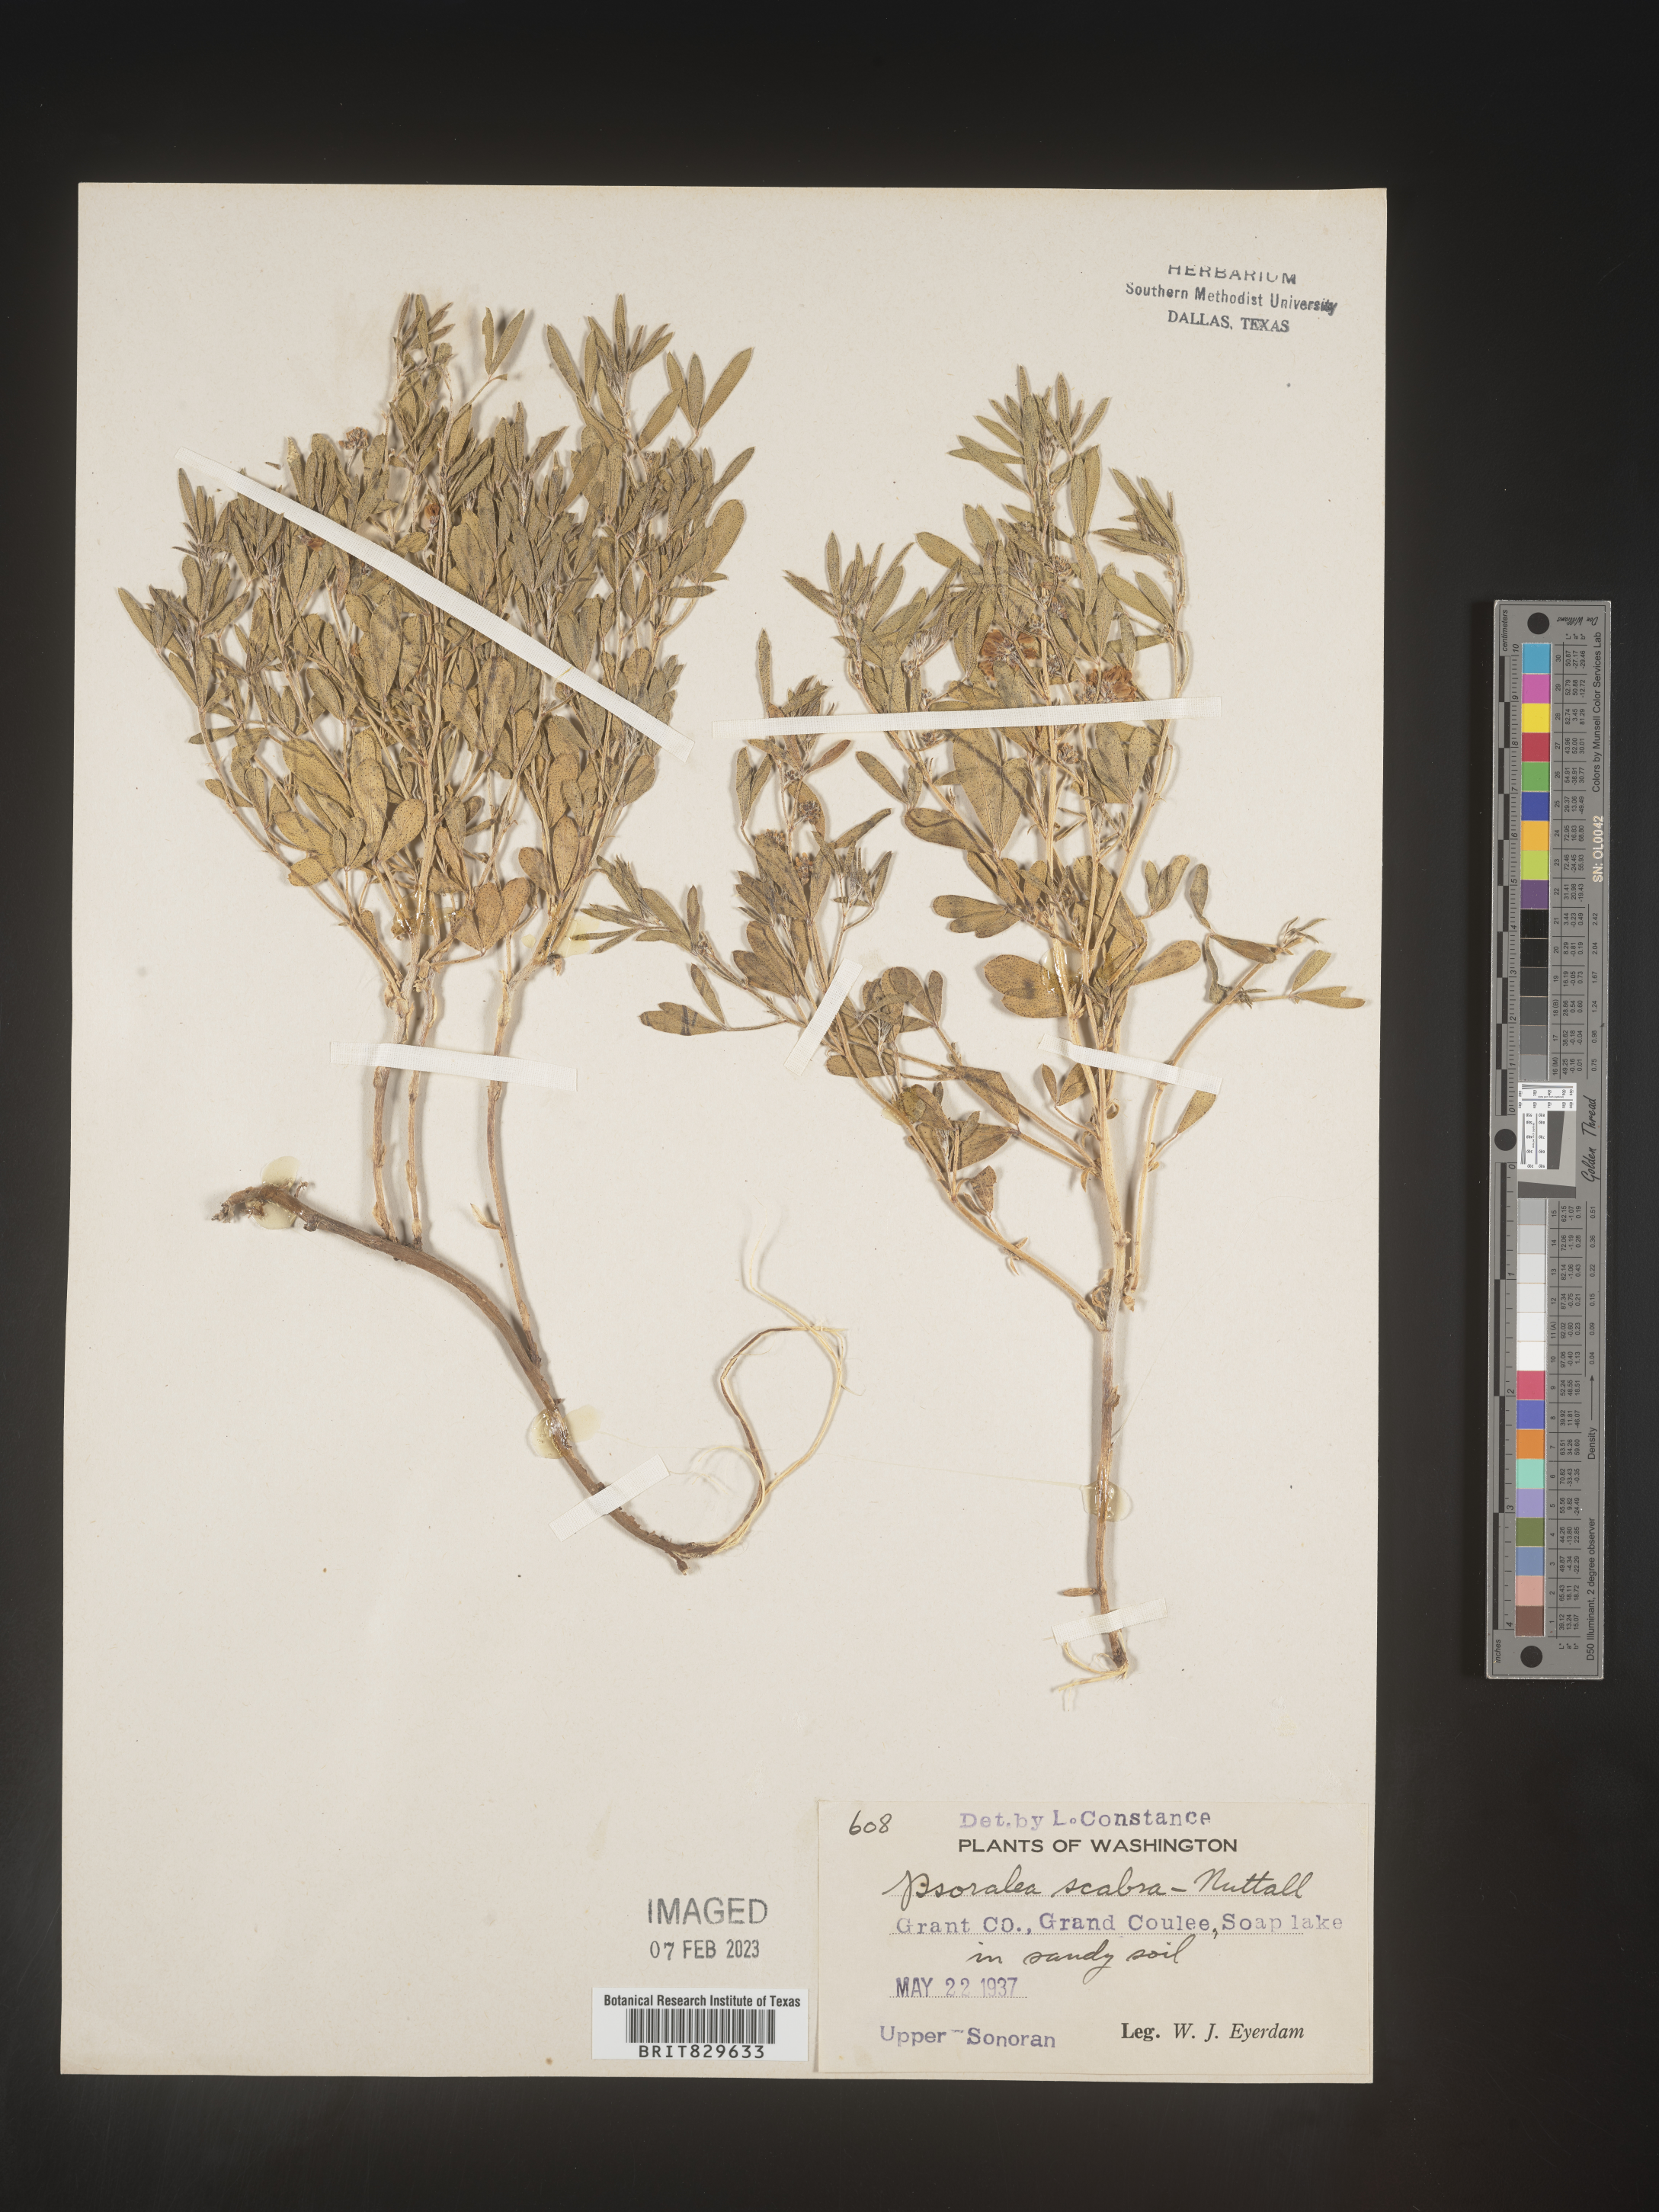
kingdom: Plantae
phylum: Tracheophyta
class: Magnoliopsida
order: Fabales
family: Fabaceae
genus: Psoralea
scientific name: Psoralea
